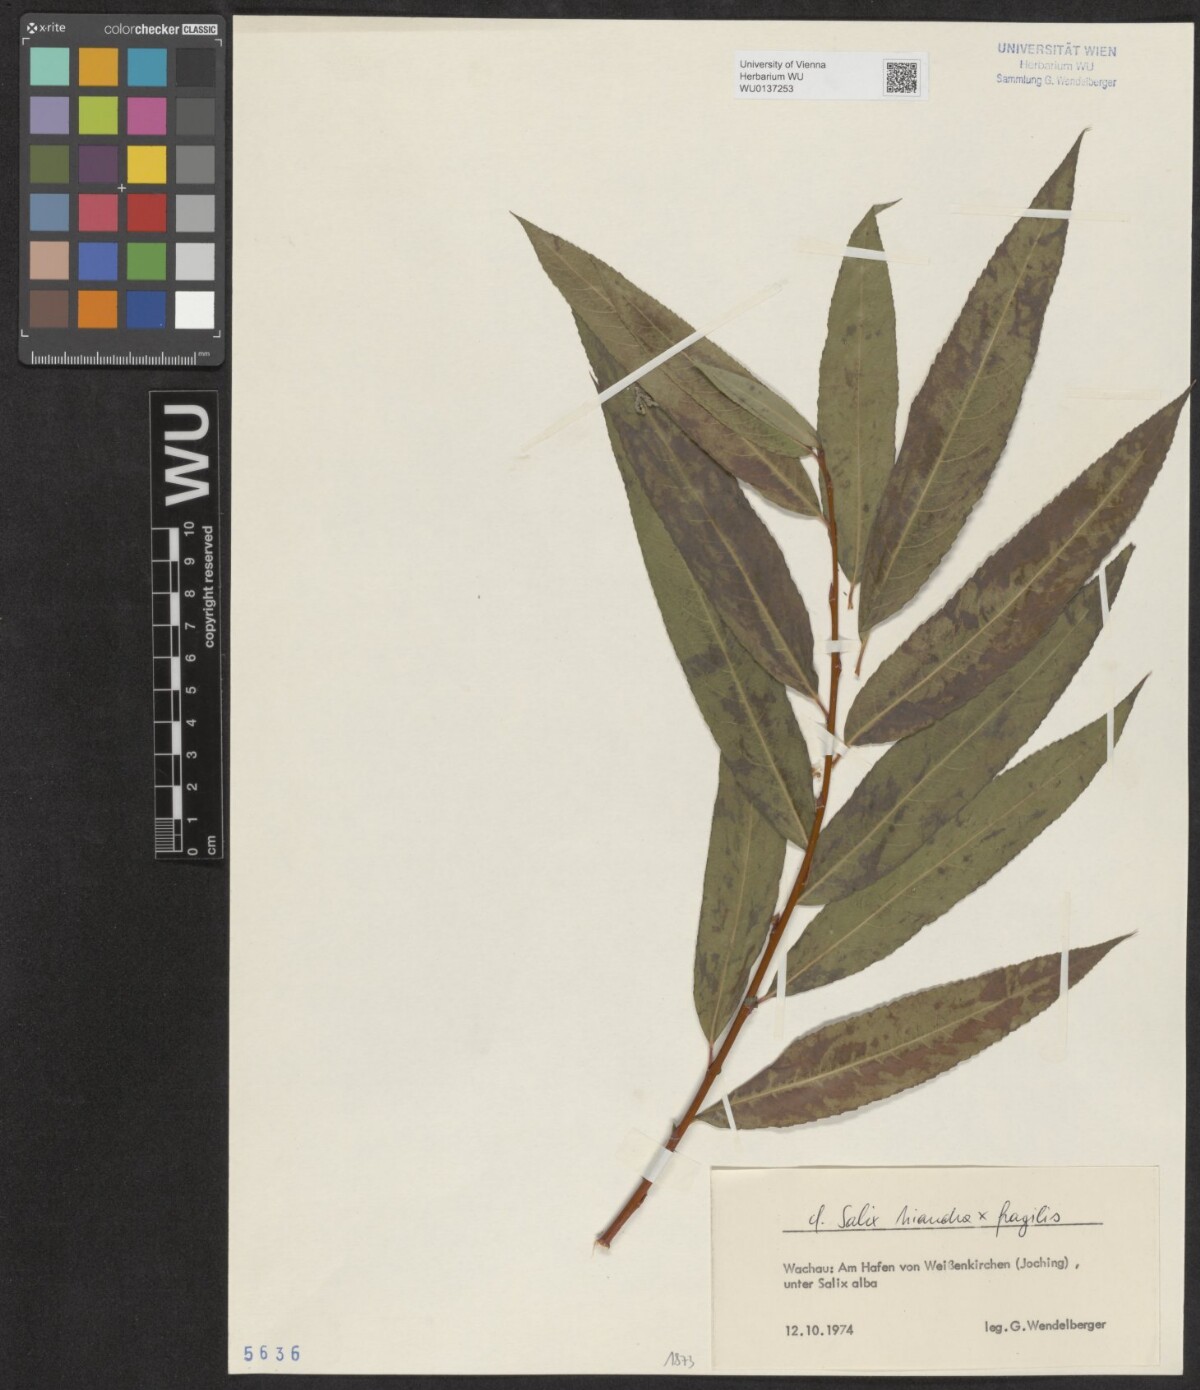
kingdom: Plantae
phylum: Tracheophyta
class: Magnoliopsida
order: Malpighiales
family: Salicaceae
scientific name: Salicaceae
